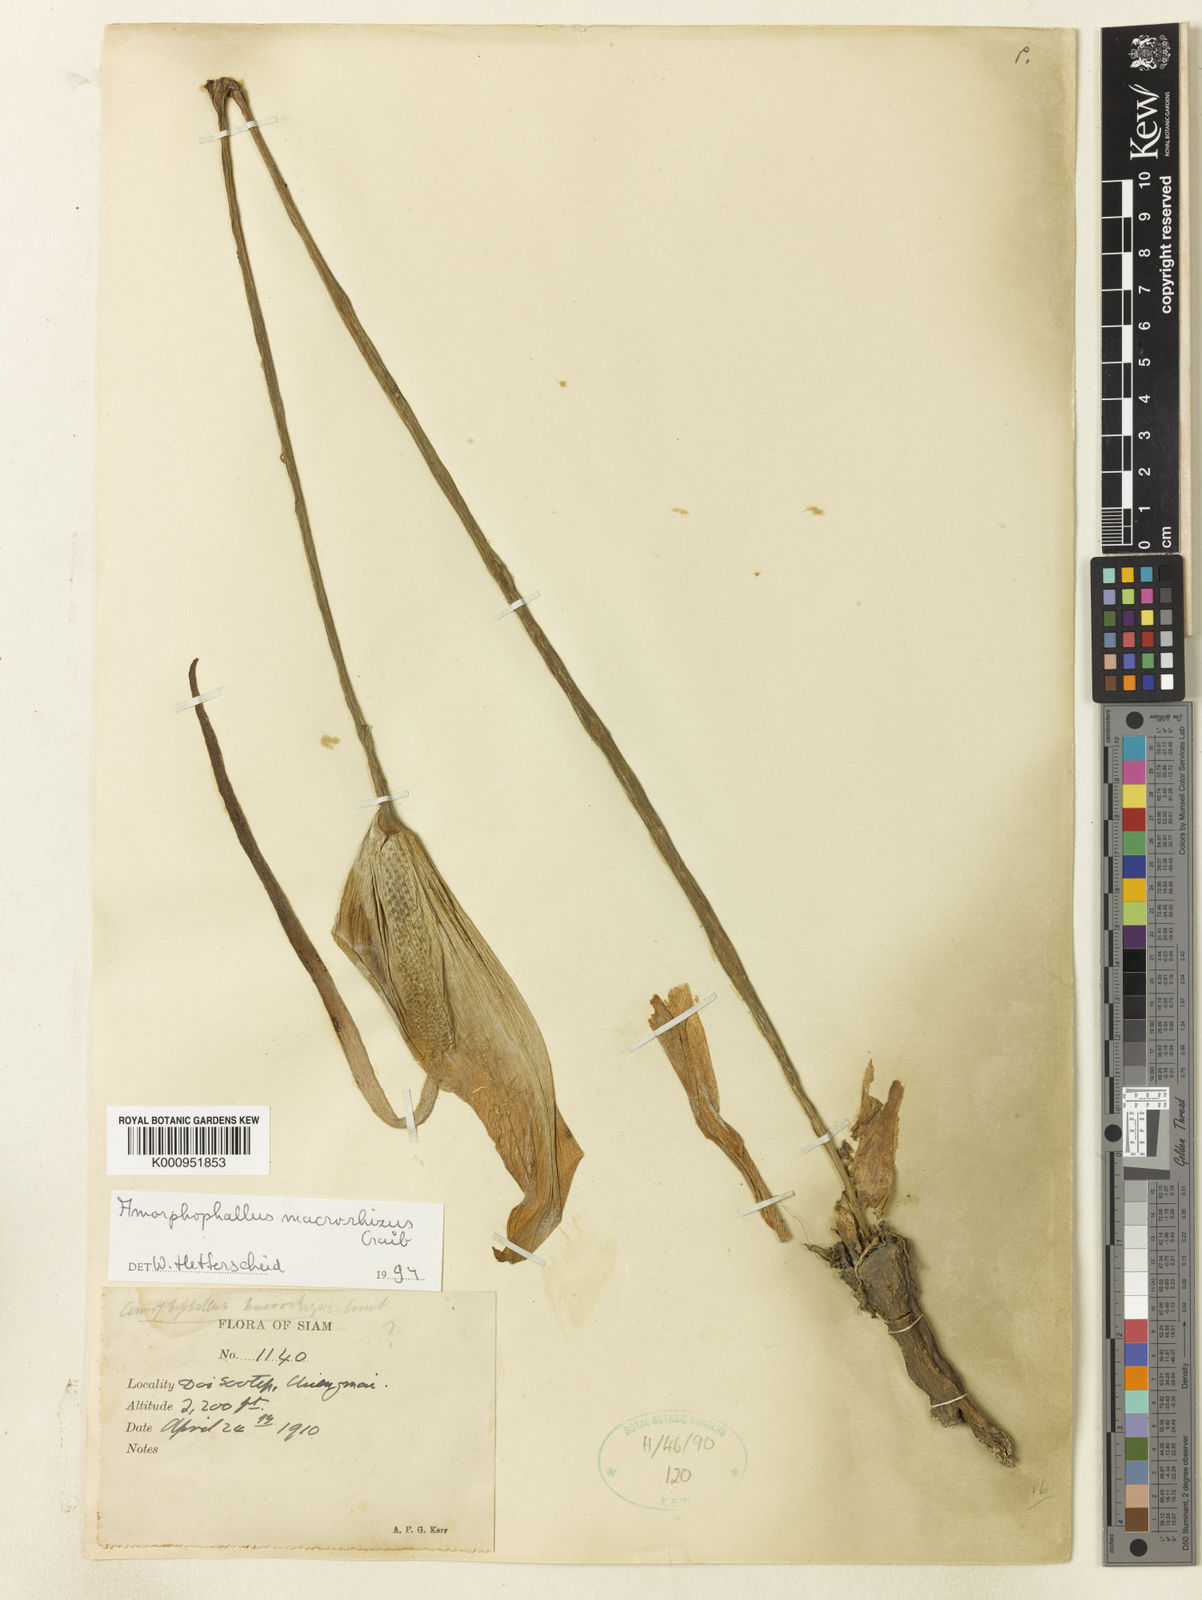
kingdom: Plantae
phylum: Tracheophyta
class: Liliopsida
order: Alismatales
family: Araceae
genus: Amorphophallus
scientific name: Amorphophallus macrorhizus
